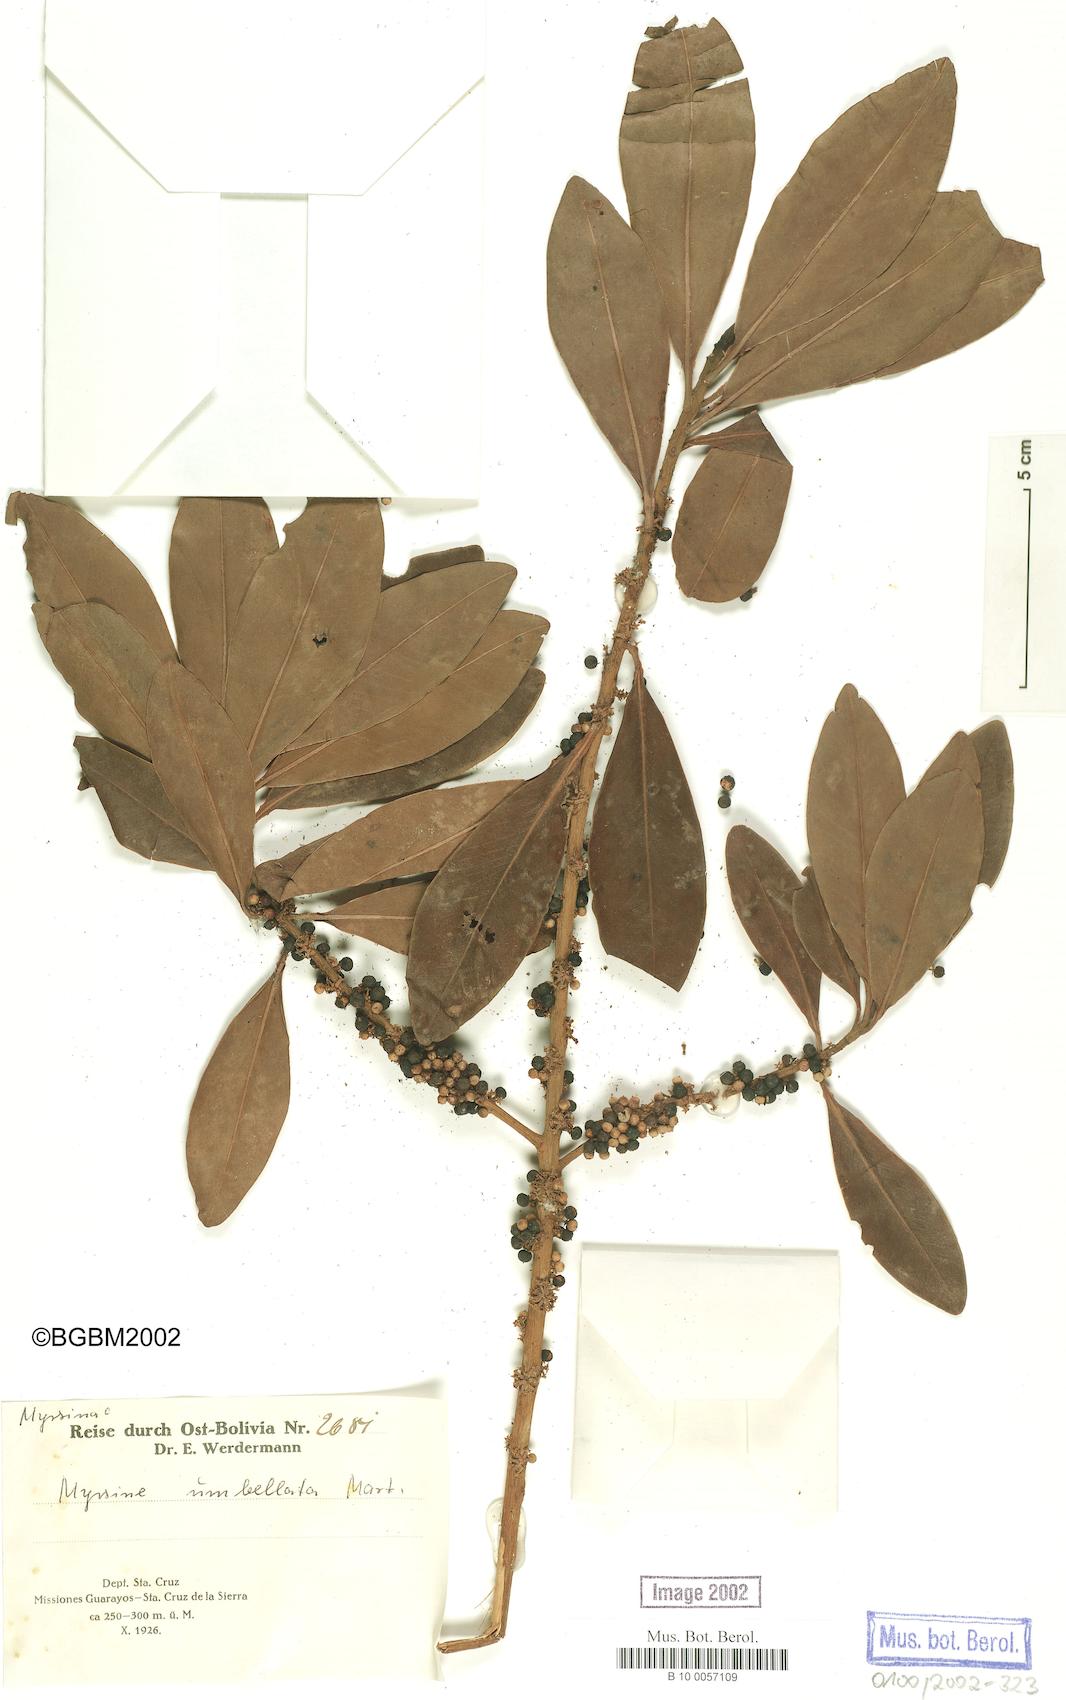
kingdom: Plantae
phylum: Tracheophyta
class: Magnoliopsida
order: Ericales
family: Primulaceae
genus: Myrsine
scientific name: Myrsine umbellata
